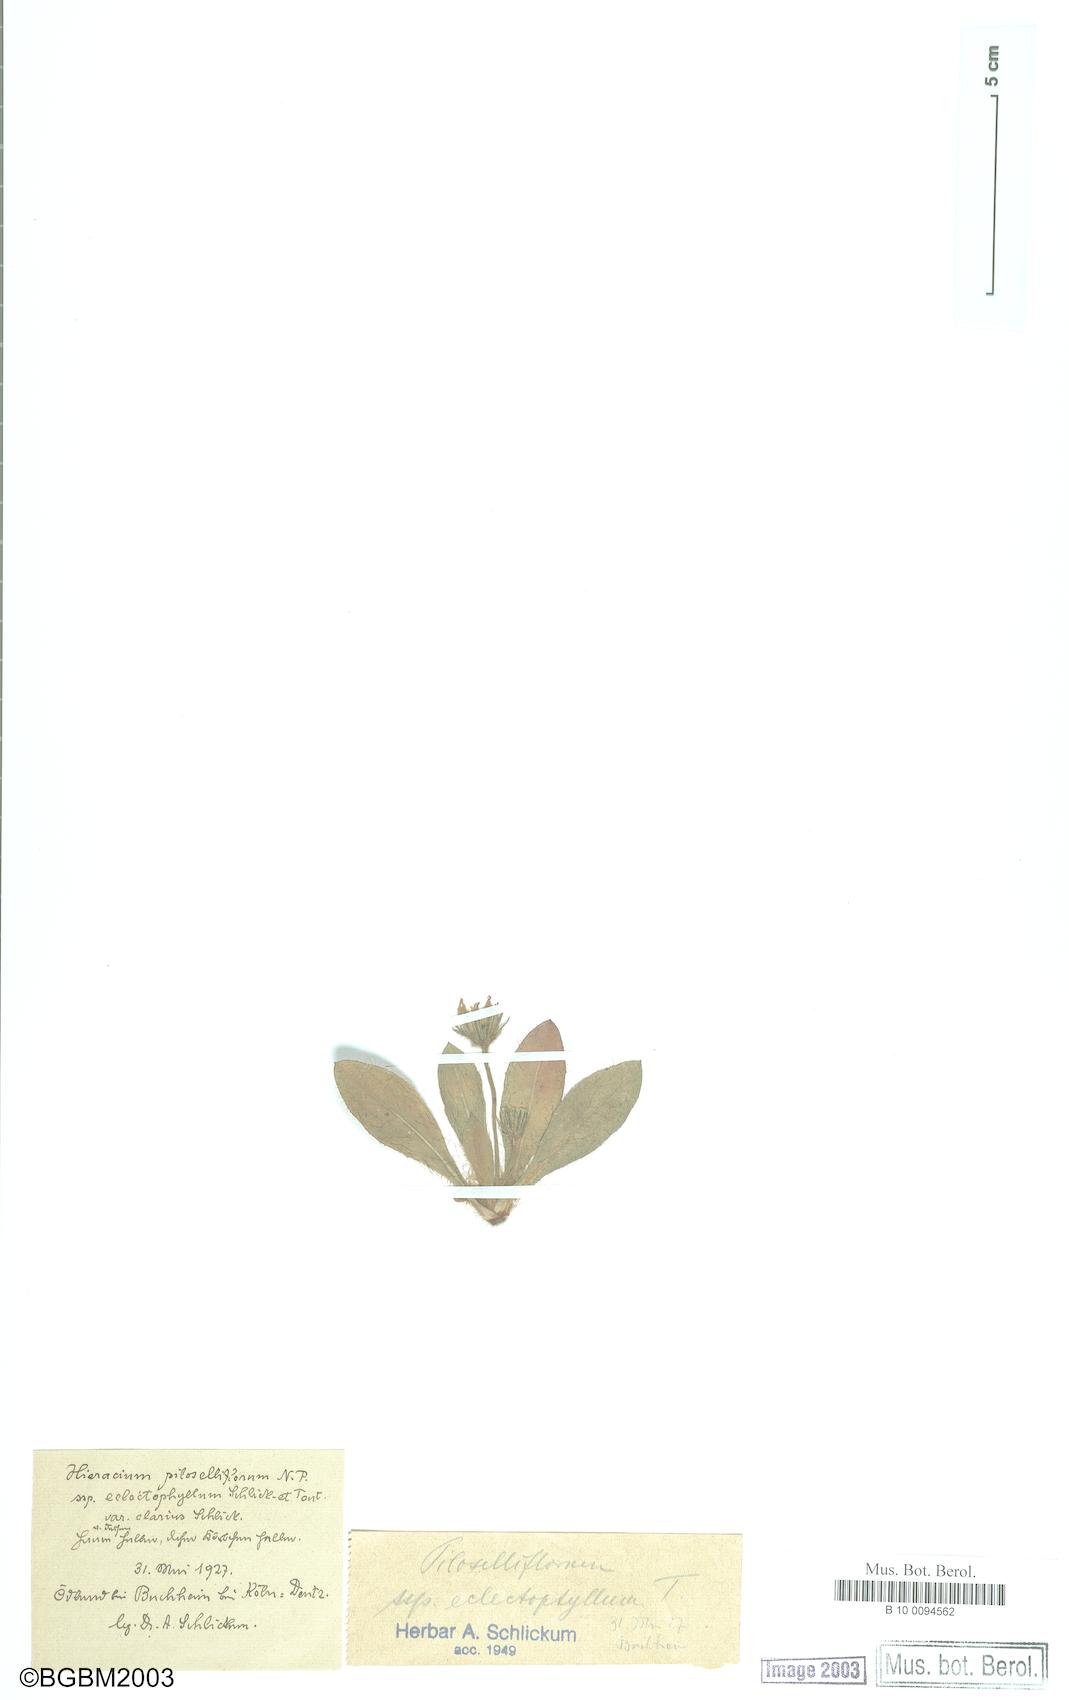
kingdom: Plantae
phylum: Tracheophyta
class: Magnoliopsida
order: Asterales
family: Asteraceae
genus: Pilosella
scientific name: Pilosella piloselliflora
